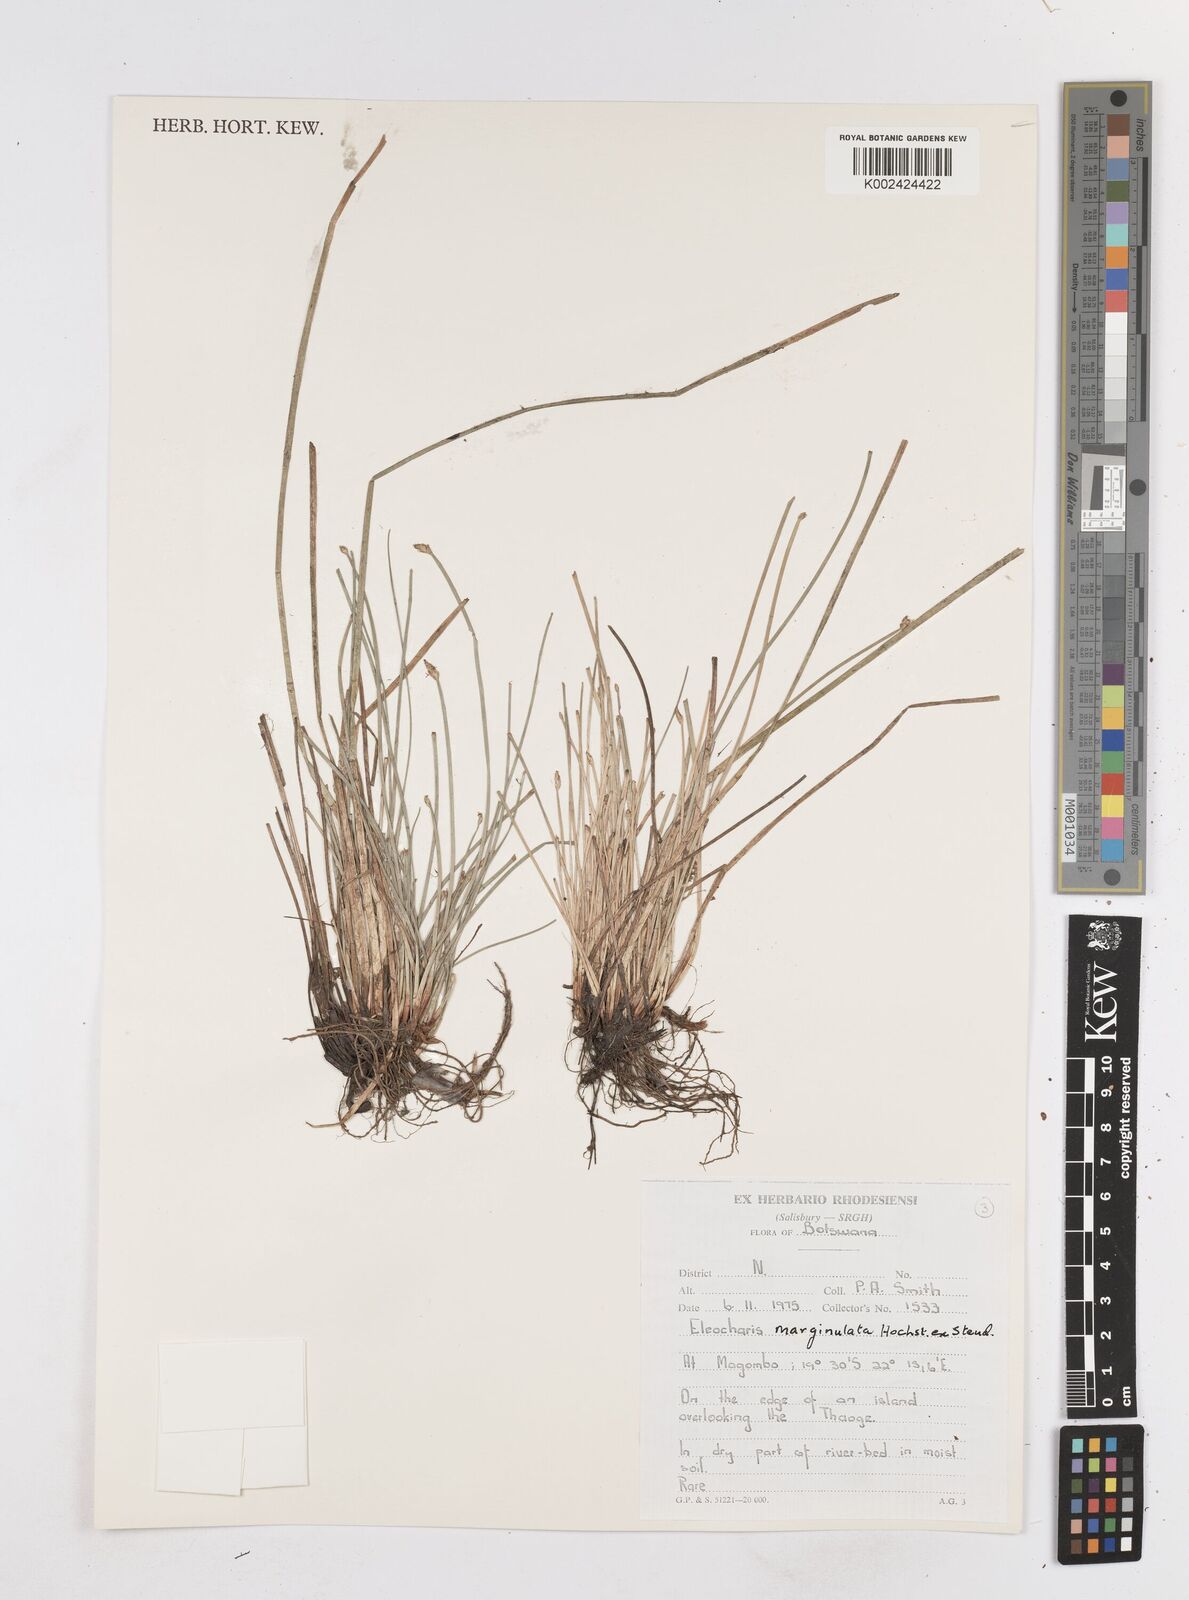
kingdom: Plantae
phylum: Tracheophyta
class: Liliopsida
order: Poales
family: Cyperaceae
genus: Eleocharis
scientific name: Eleocharis marginulata
